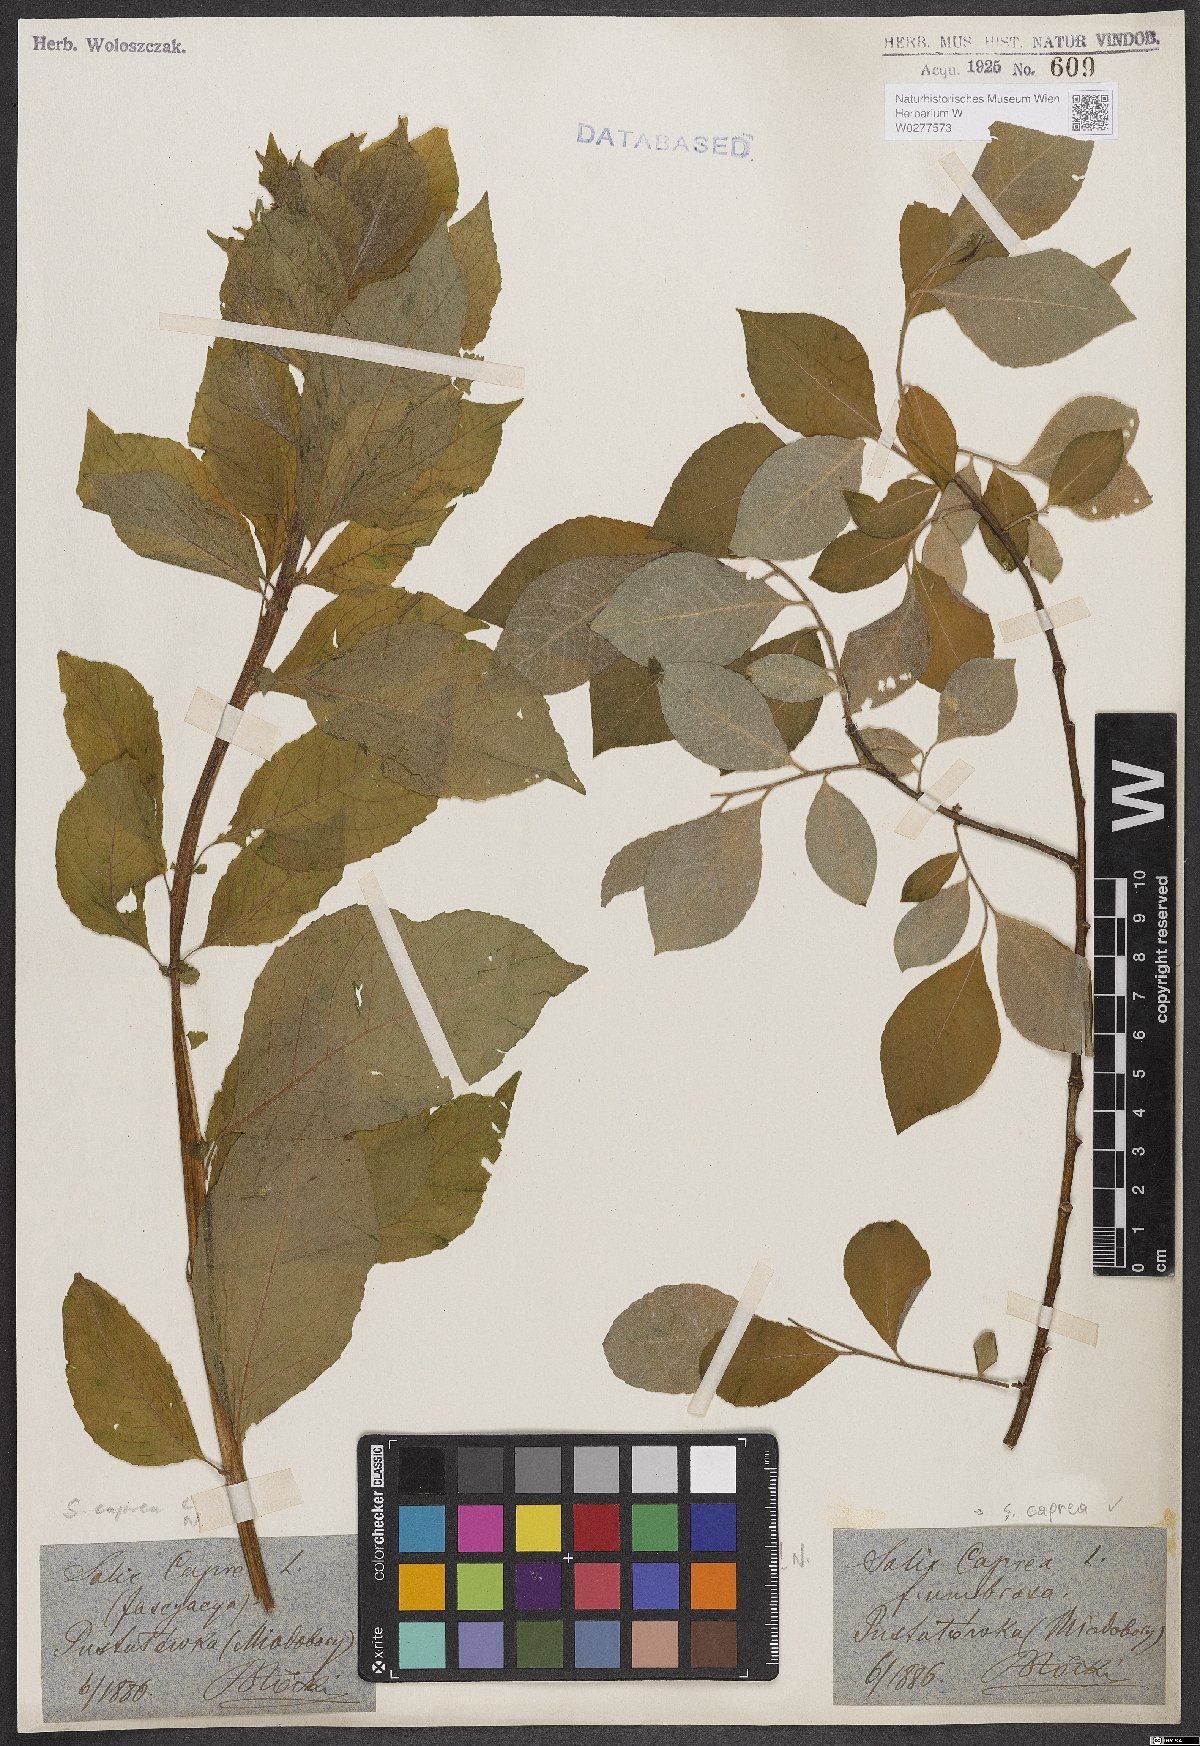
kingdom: Plantae
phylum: Tracheophyta
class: Magnoliopsida
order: Malpighiales
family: Salicaceae
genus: Salix
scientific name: Salix caprea
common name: Goat willow
